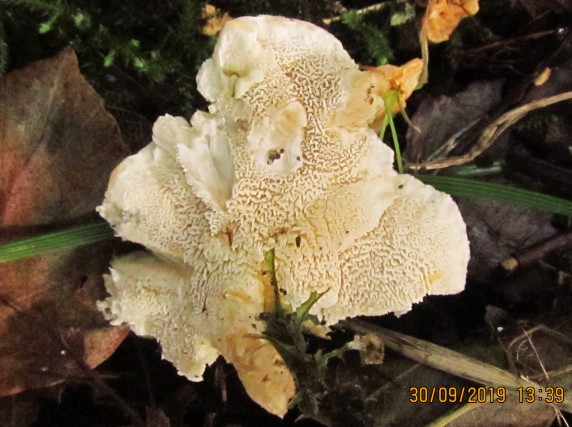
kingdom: Fungi
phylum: Basidiomycota
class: Agaricomycetes
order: Cantharellales
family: Hydnaceae
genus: Sistotrema
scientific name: Sistotrema confluens
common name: stilket kroneskorpe
